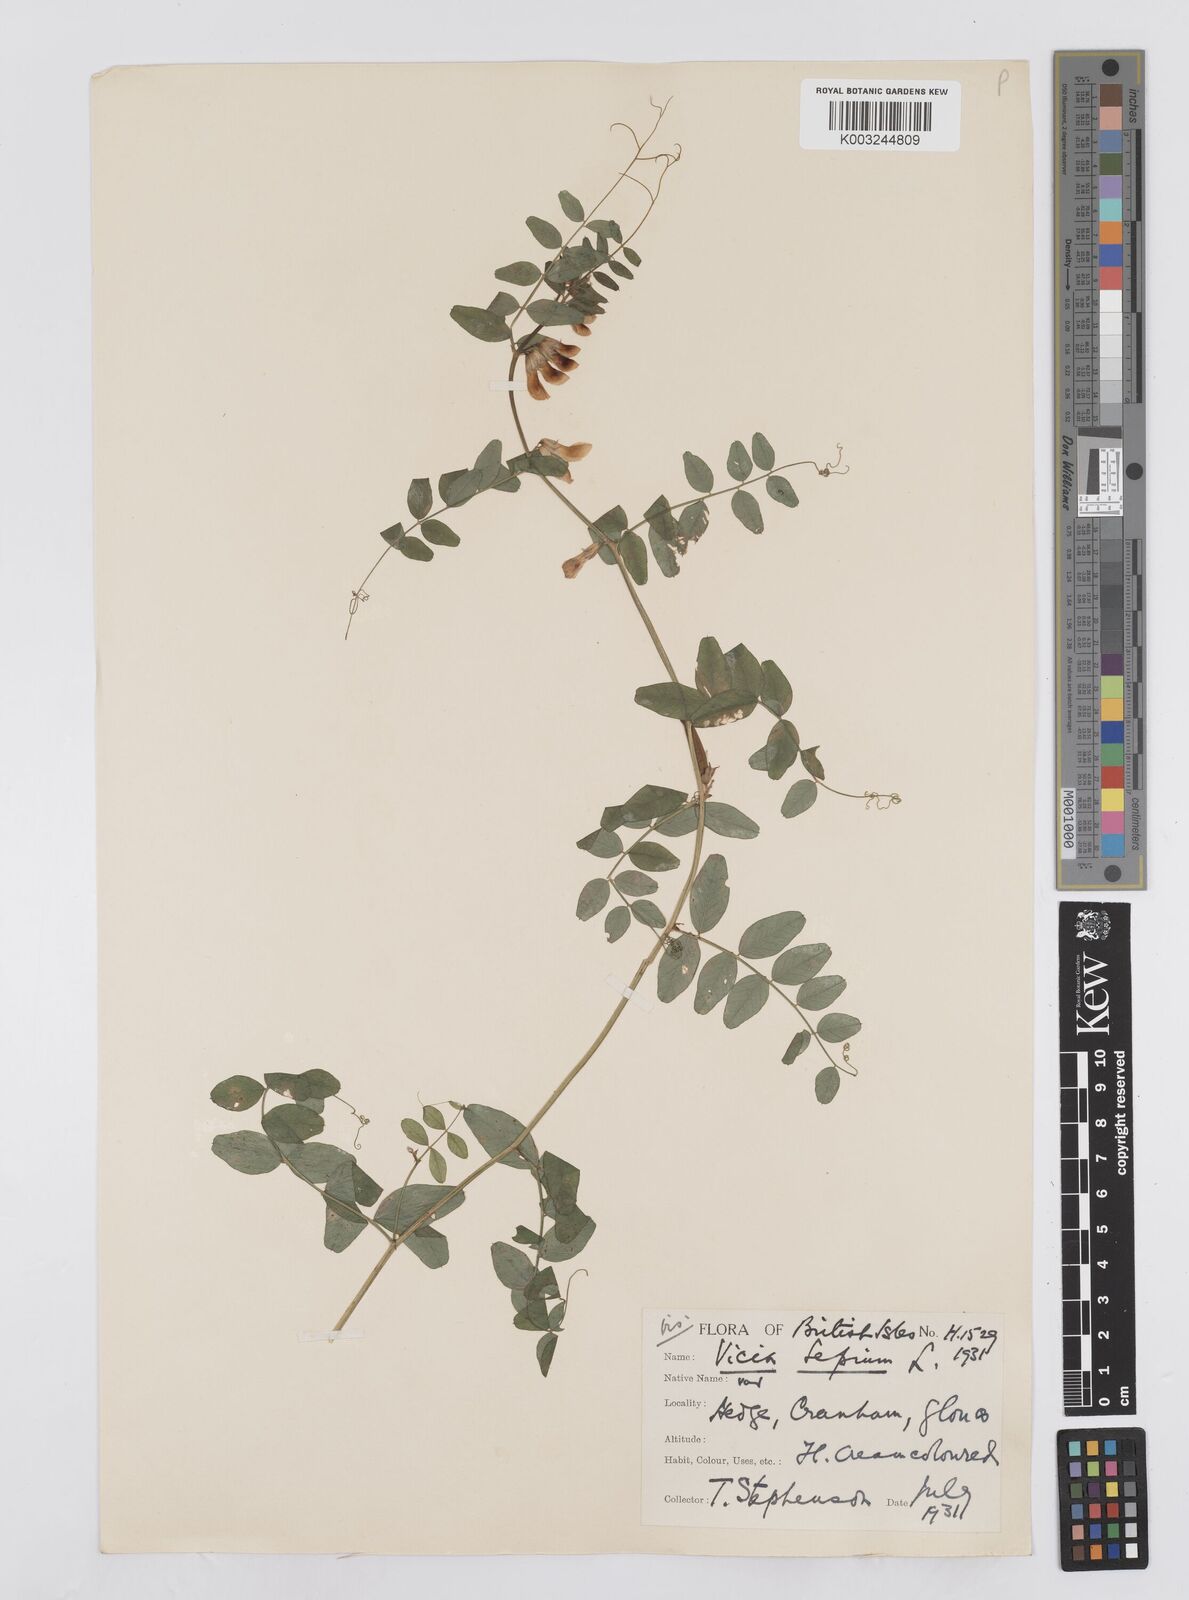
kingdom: Plantae
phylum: Tracheophyta
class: Magnoliopsida
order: Fabales
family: Fabaceae
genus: Vicia
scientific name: Vicia sepium
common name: Bush vetch
